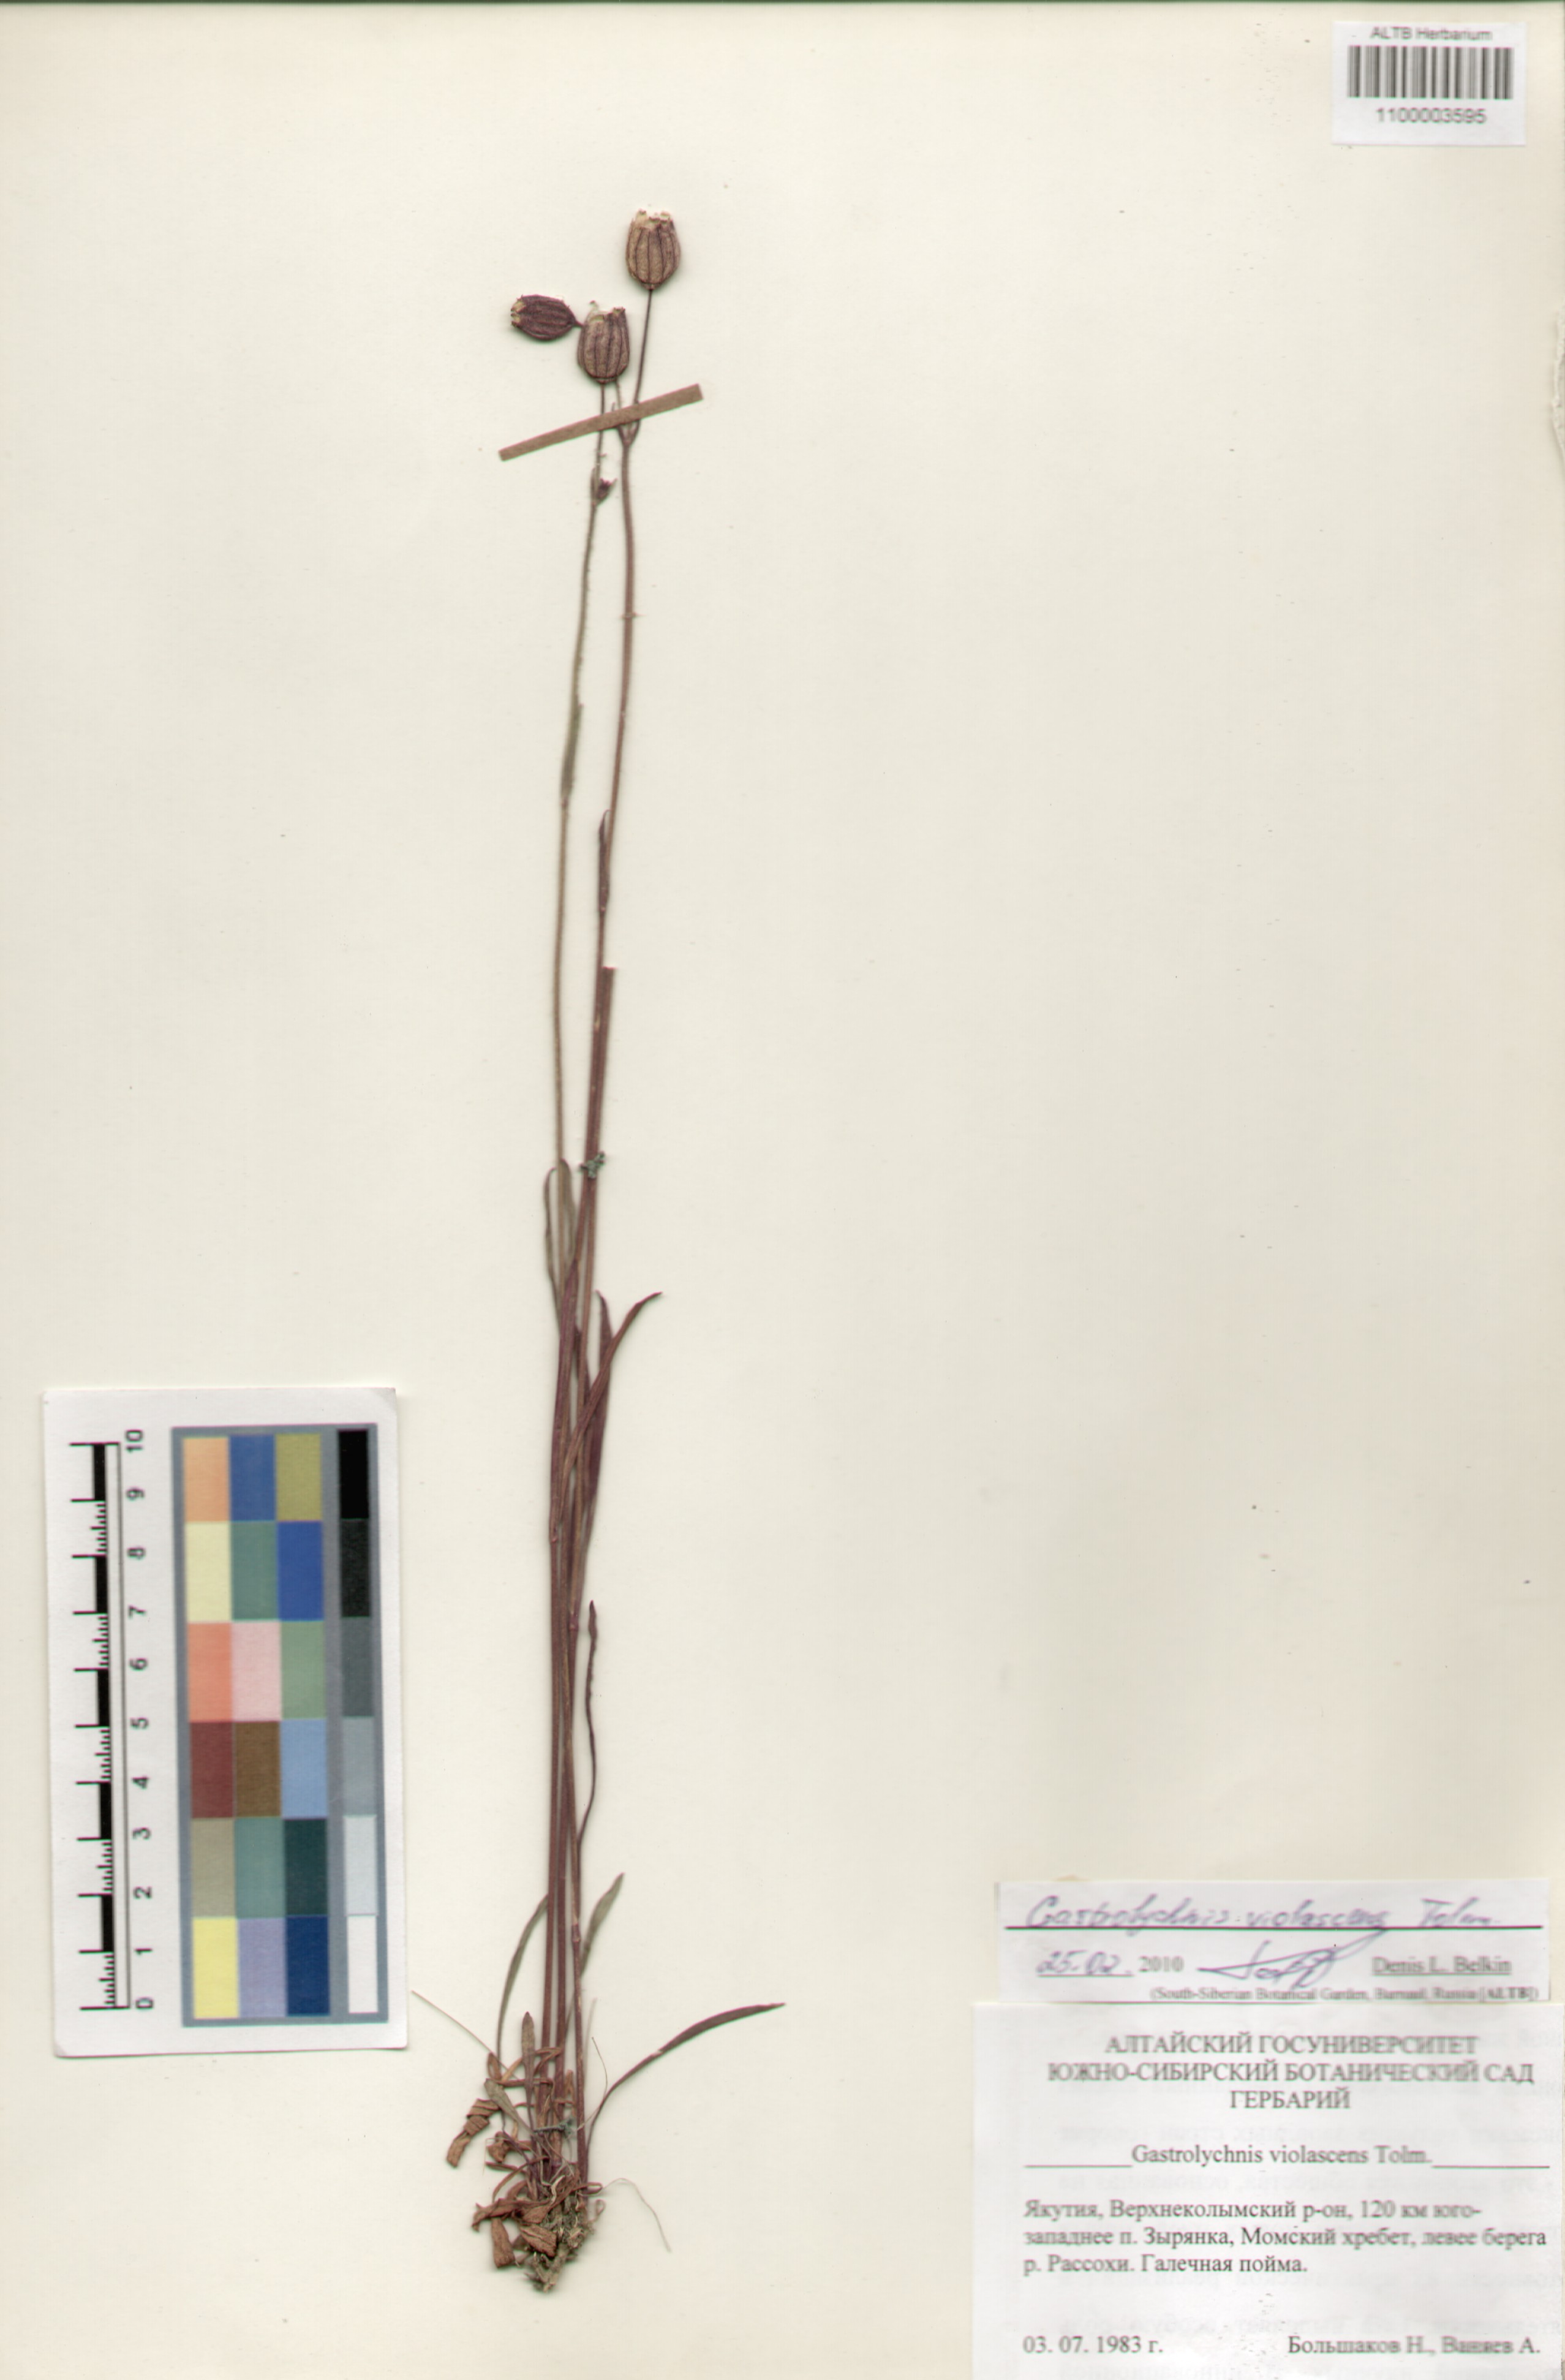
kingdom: Plantae
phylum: Tracheophyta
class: Magnoliopsida
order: Caryophyllales
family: Caryophyllaceae
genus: Silene
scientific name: Silene violascens
